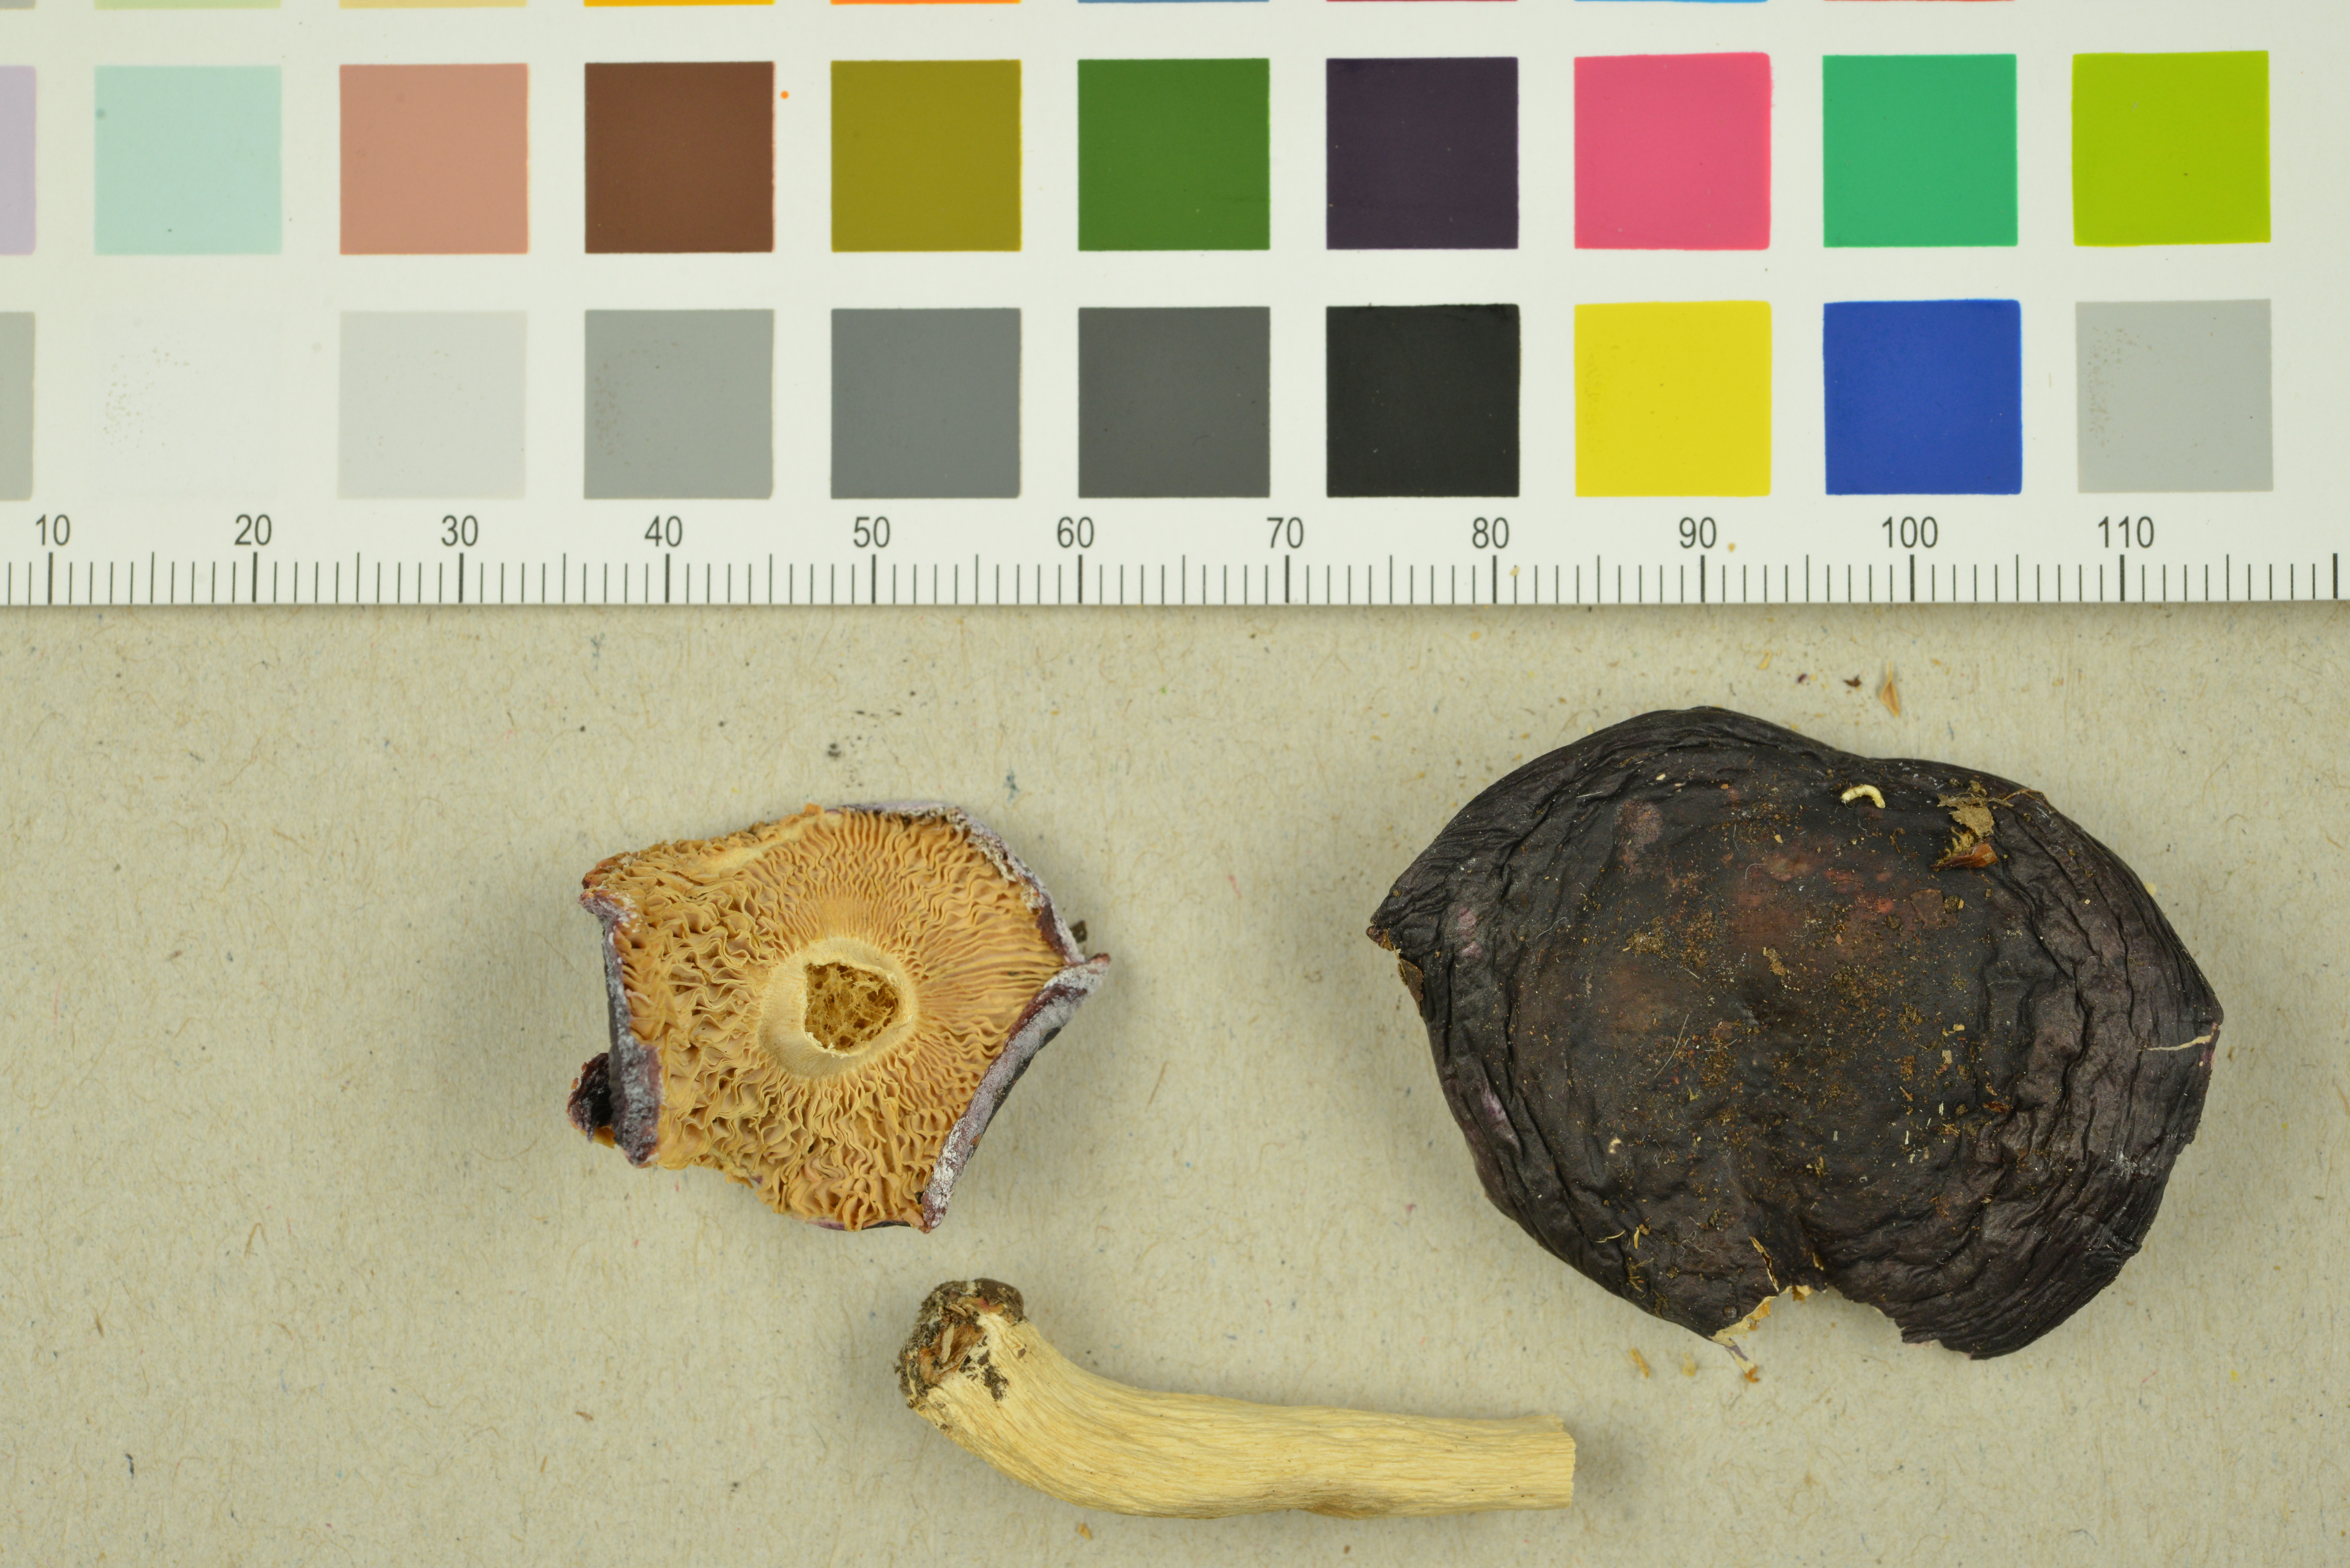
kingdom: Fungi
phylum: Basidiomycota
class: Agaricomycetes
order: Russulales
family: Russulaceae
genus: Russula
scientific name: Russula azurea
